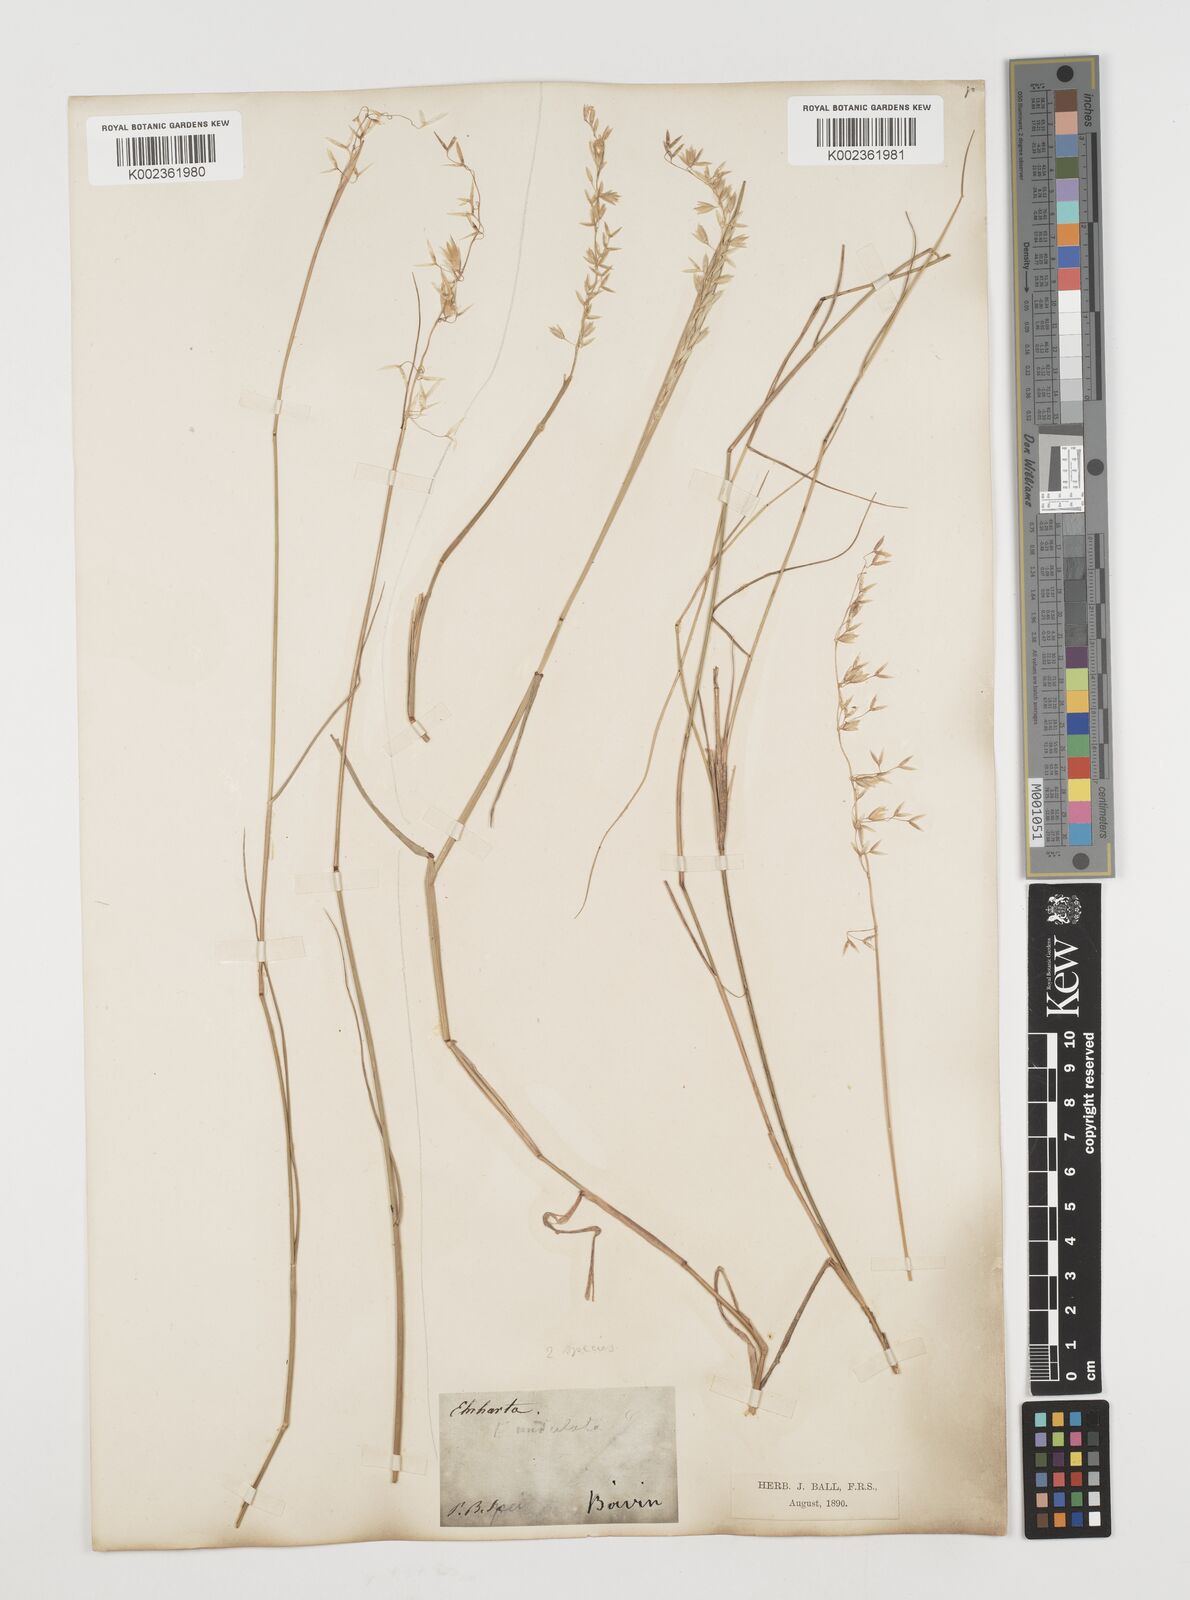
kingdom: Plantae
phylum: Tracheophyta
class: Liliopsida
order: Poales
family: Poaceae
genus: Ehrharta
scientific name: Ehrharta calycina
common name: Perennial veldtgrass
